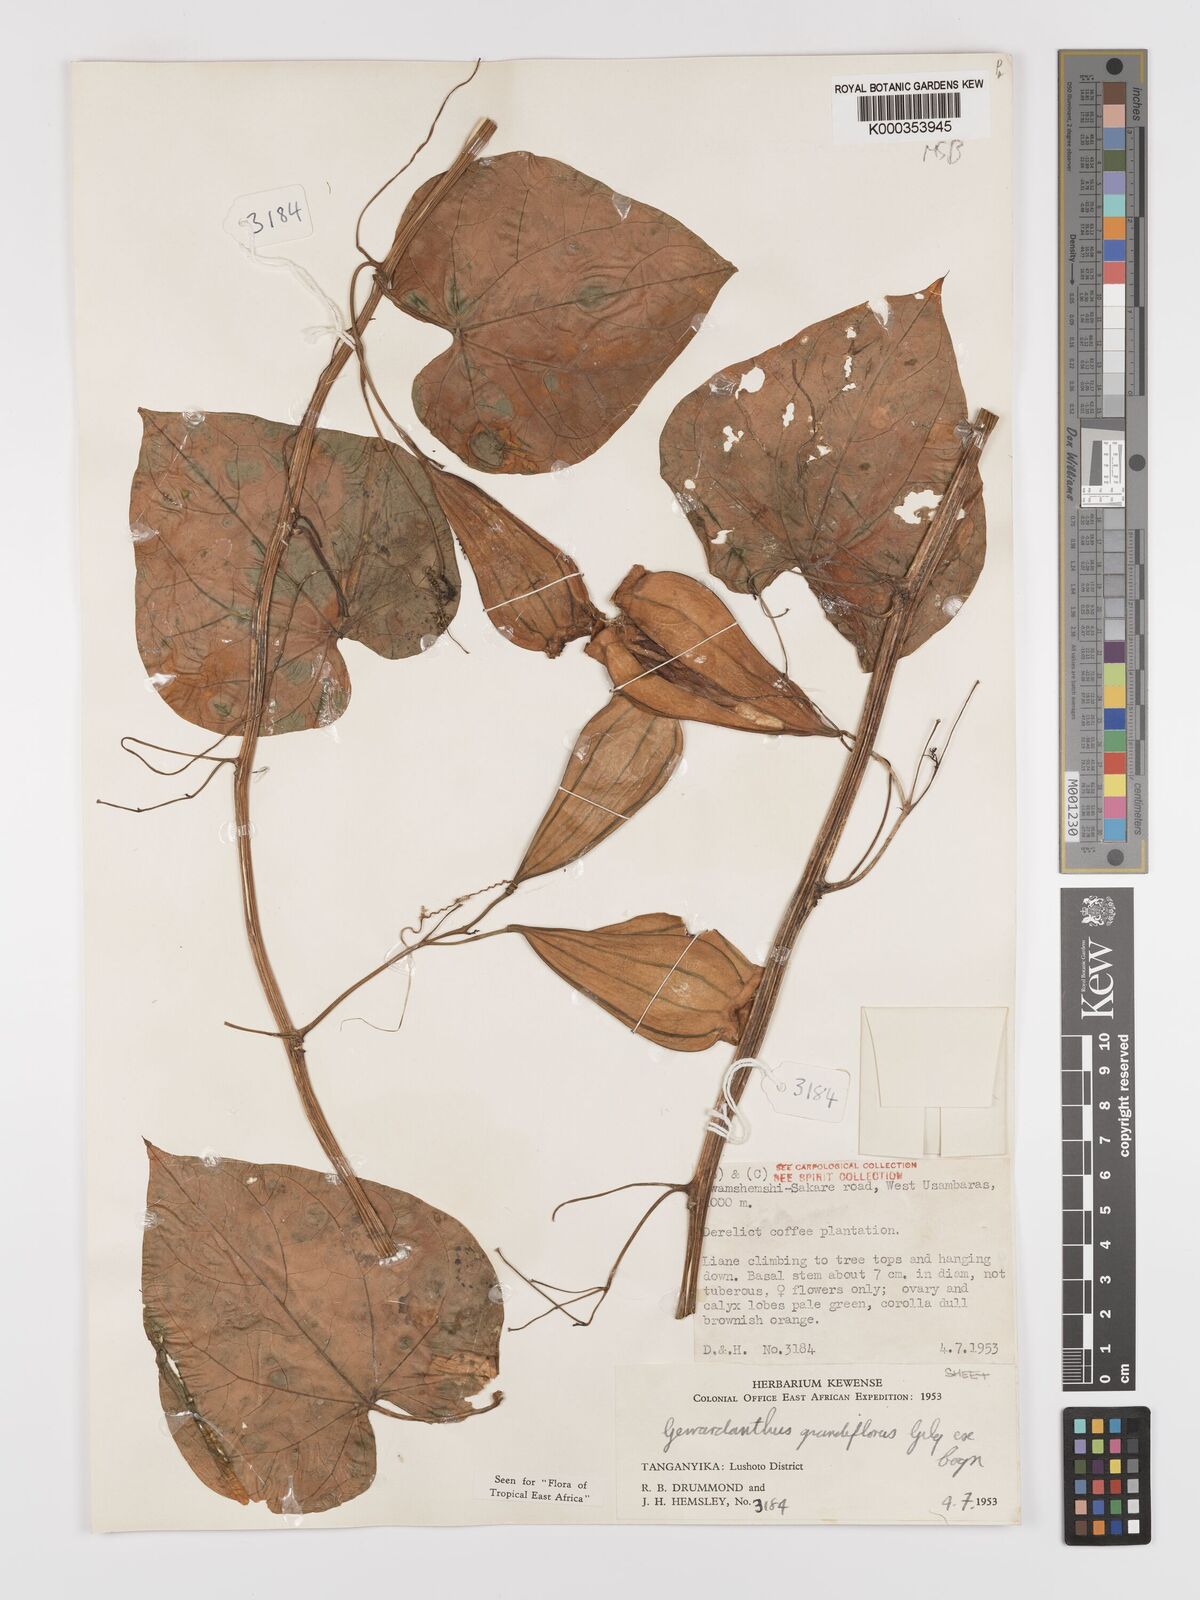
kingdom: Plantae
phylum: Tracheophyta
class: Magnoliopsida
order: Cucurbitales
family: Cucurbitaceae
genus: Gerrardanthus
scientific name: Gerrardanthus
